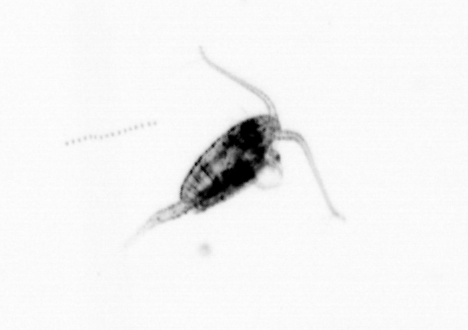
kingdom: Animalia
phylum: Arthropoda
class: Copepoda
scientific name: Copepoda
